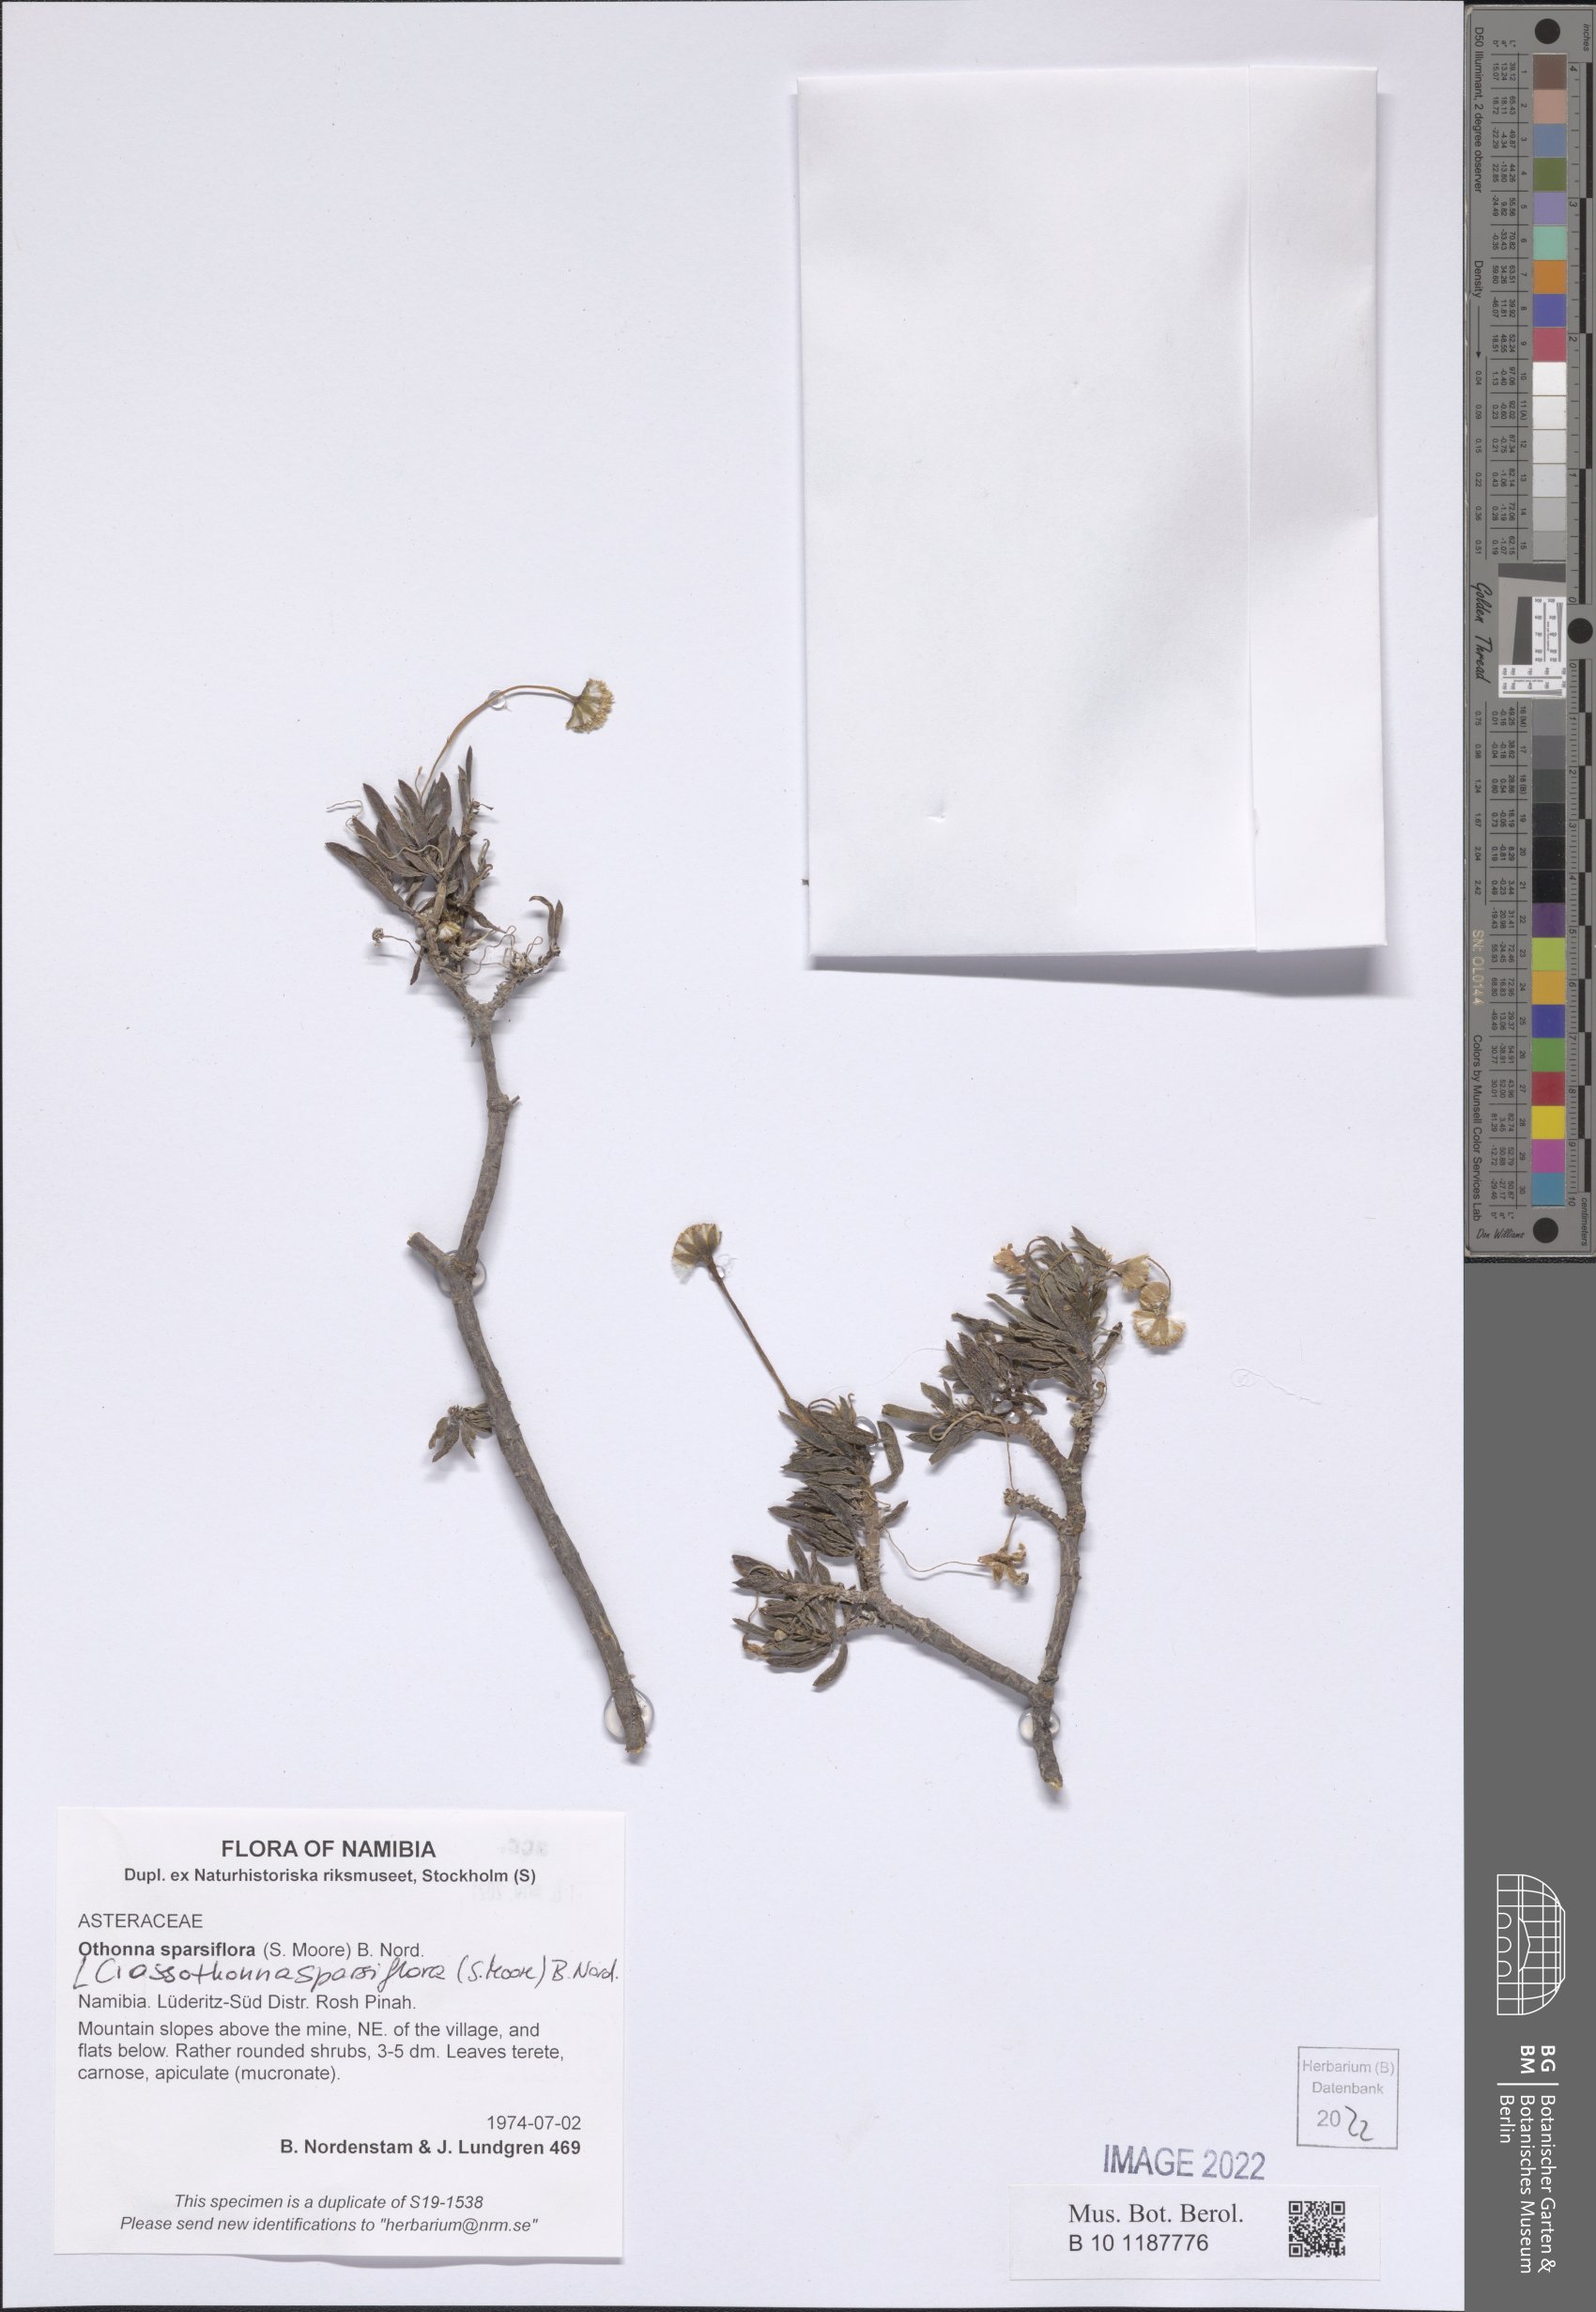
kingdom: Plantae
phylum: Tracheophyta
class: Magnoliopsida
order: Asterales
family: Asteraceae
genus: Crassothonna
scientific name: Crassothonna sparsiflora
